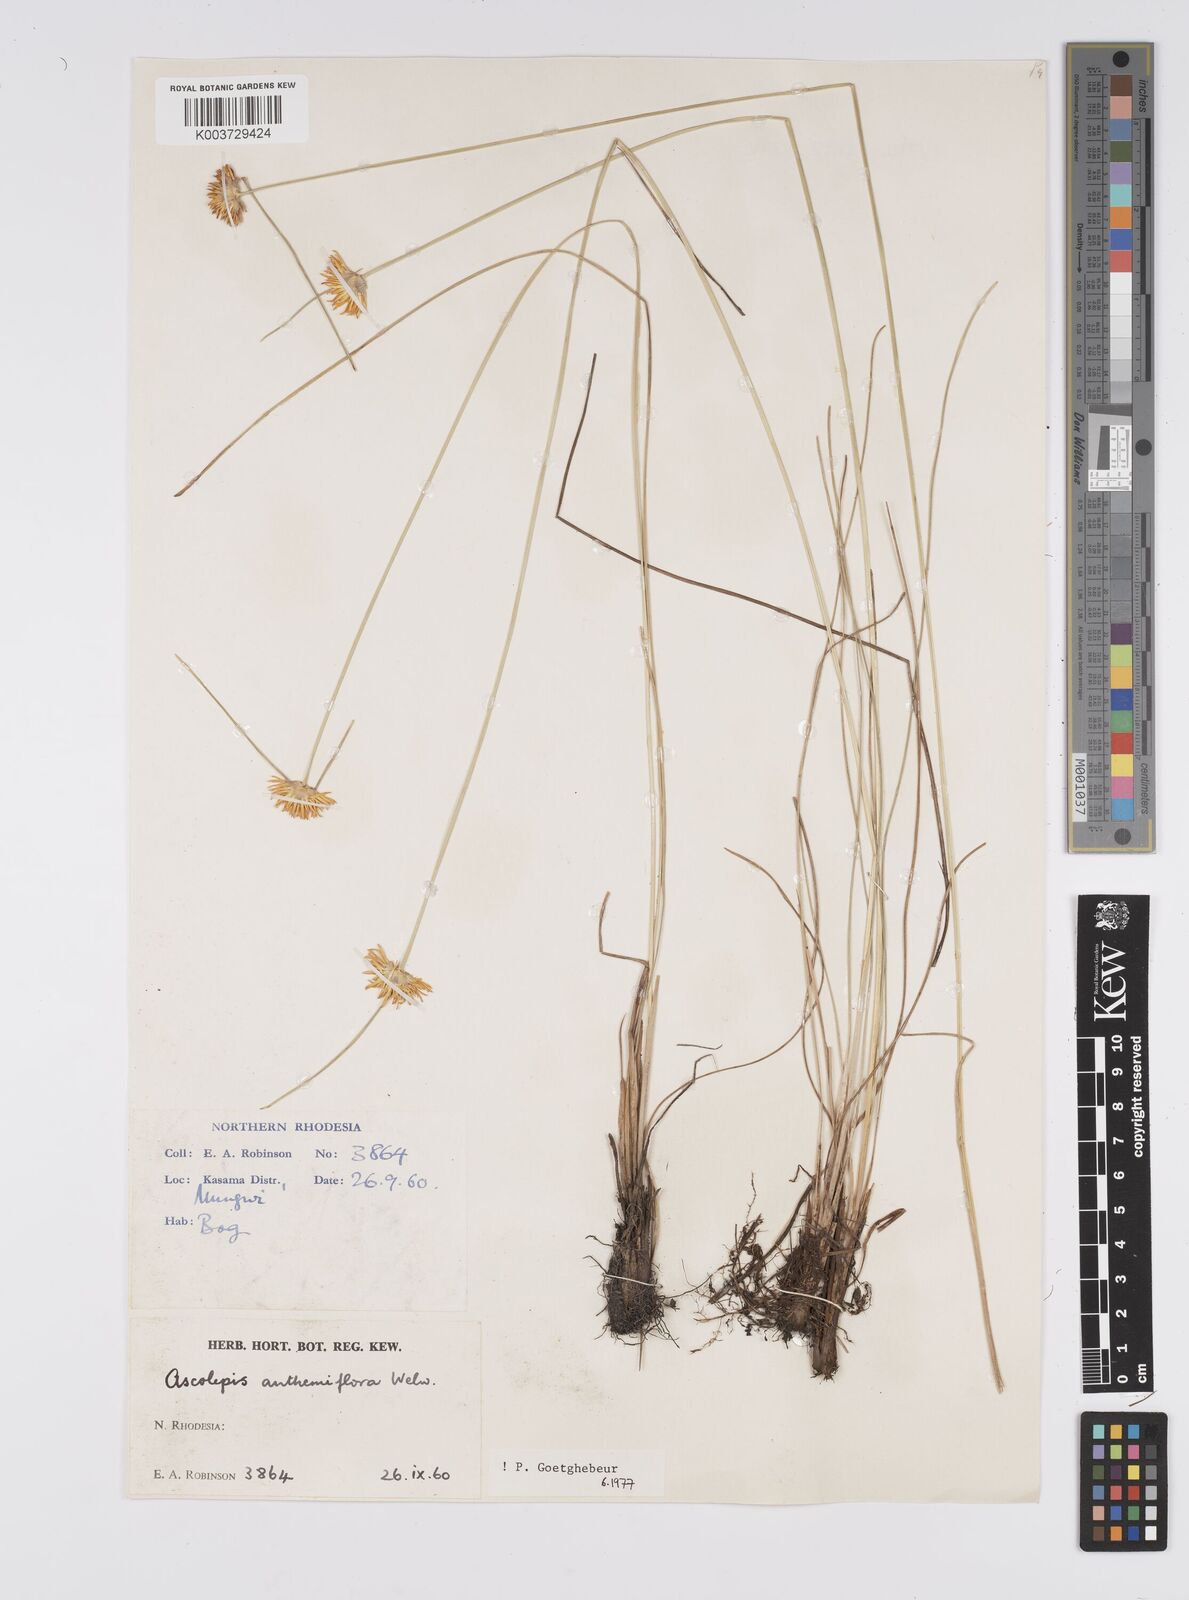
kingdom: Plantae
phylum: Tracheophyta
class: Liliopsida
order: Poales
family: Cyperaceae
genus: Cyperus
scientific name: Cyperus
